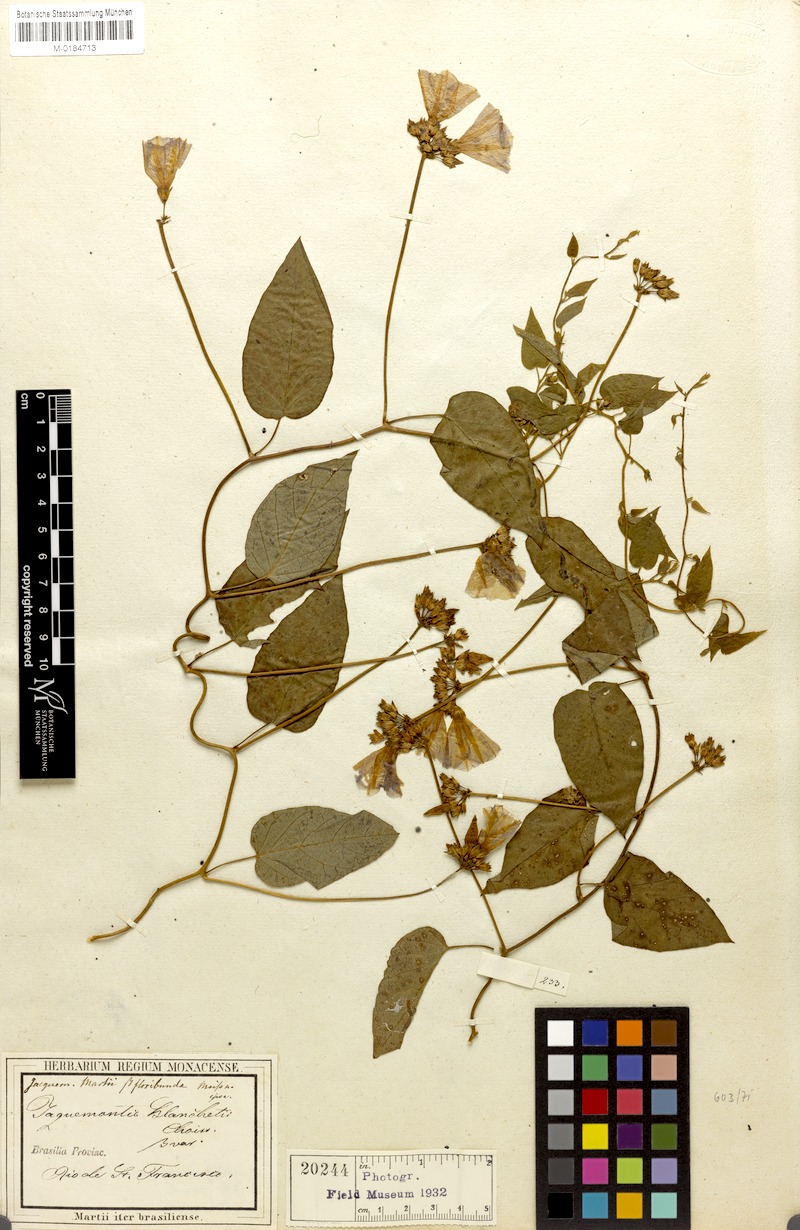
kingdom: Plantae
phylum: Tracheophyta
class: Magnoliopsida
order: Solanales
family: Convolvulaceae
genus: Jacquemontia
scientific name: Jacquemontia blanchetii
